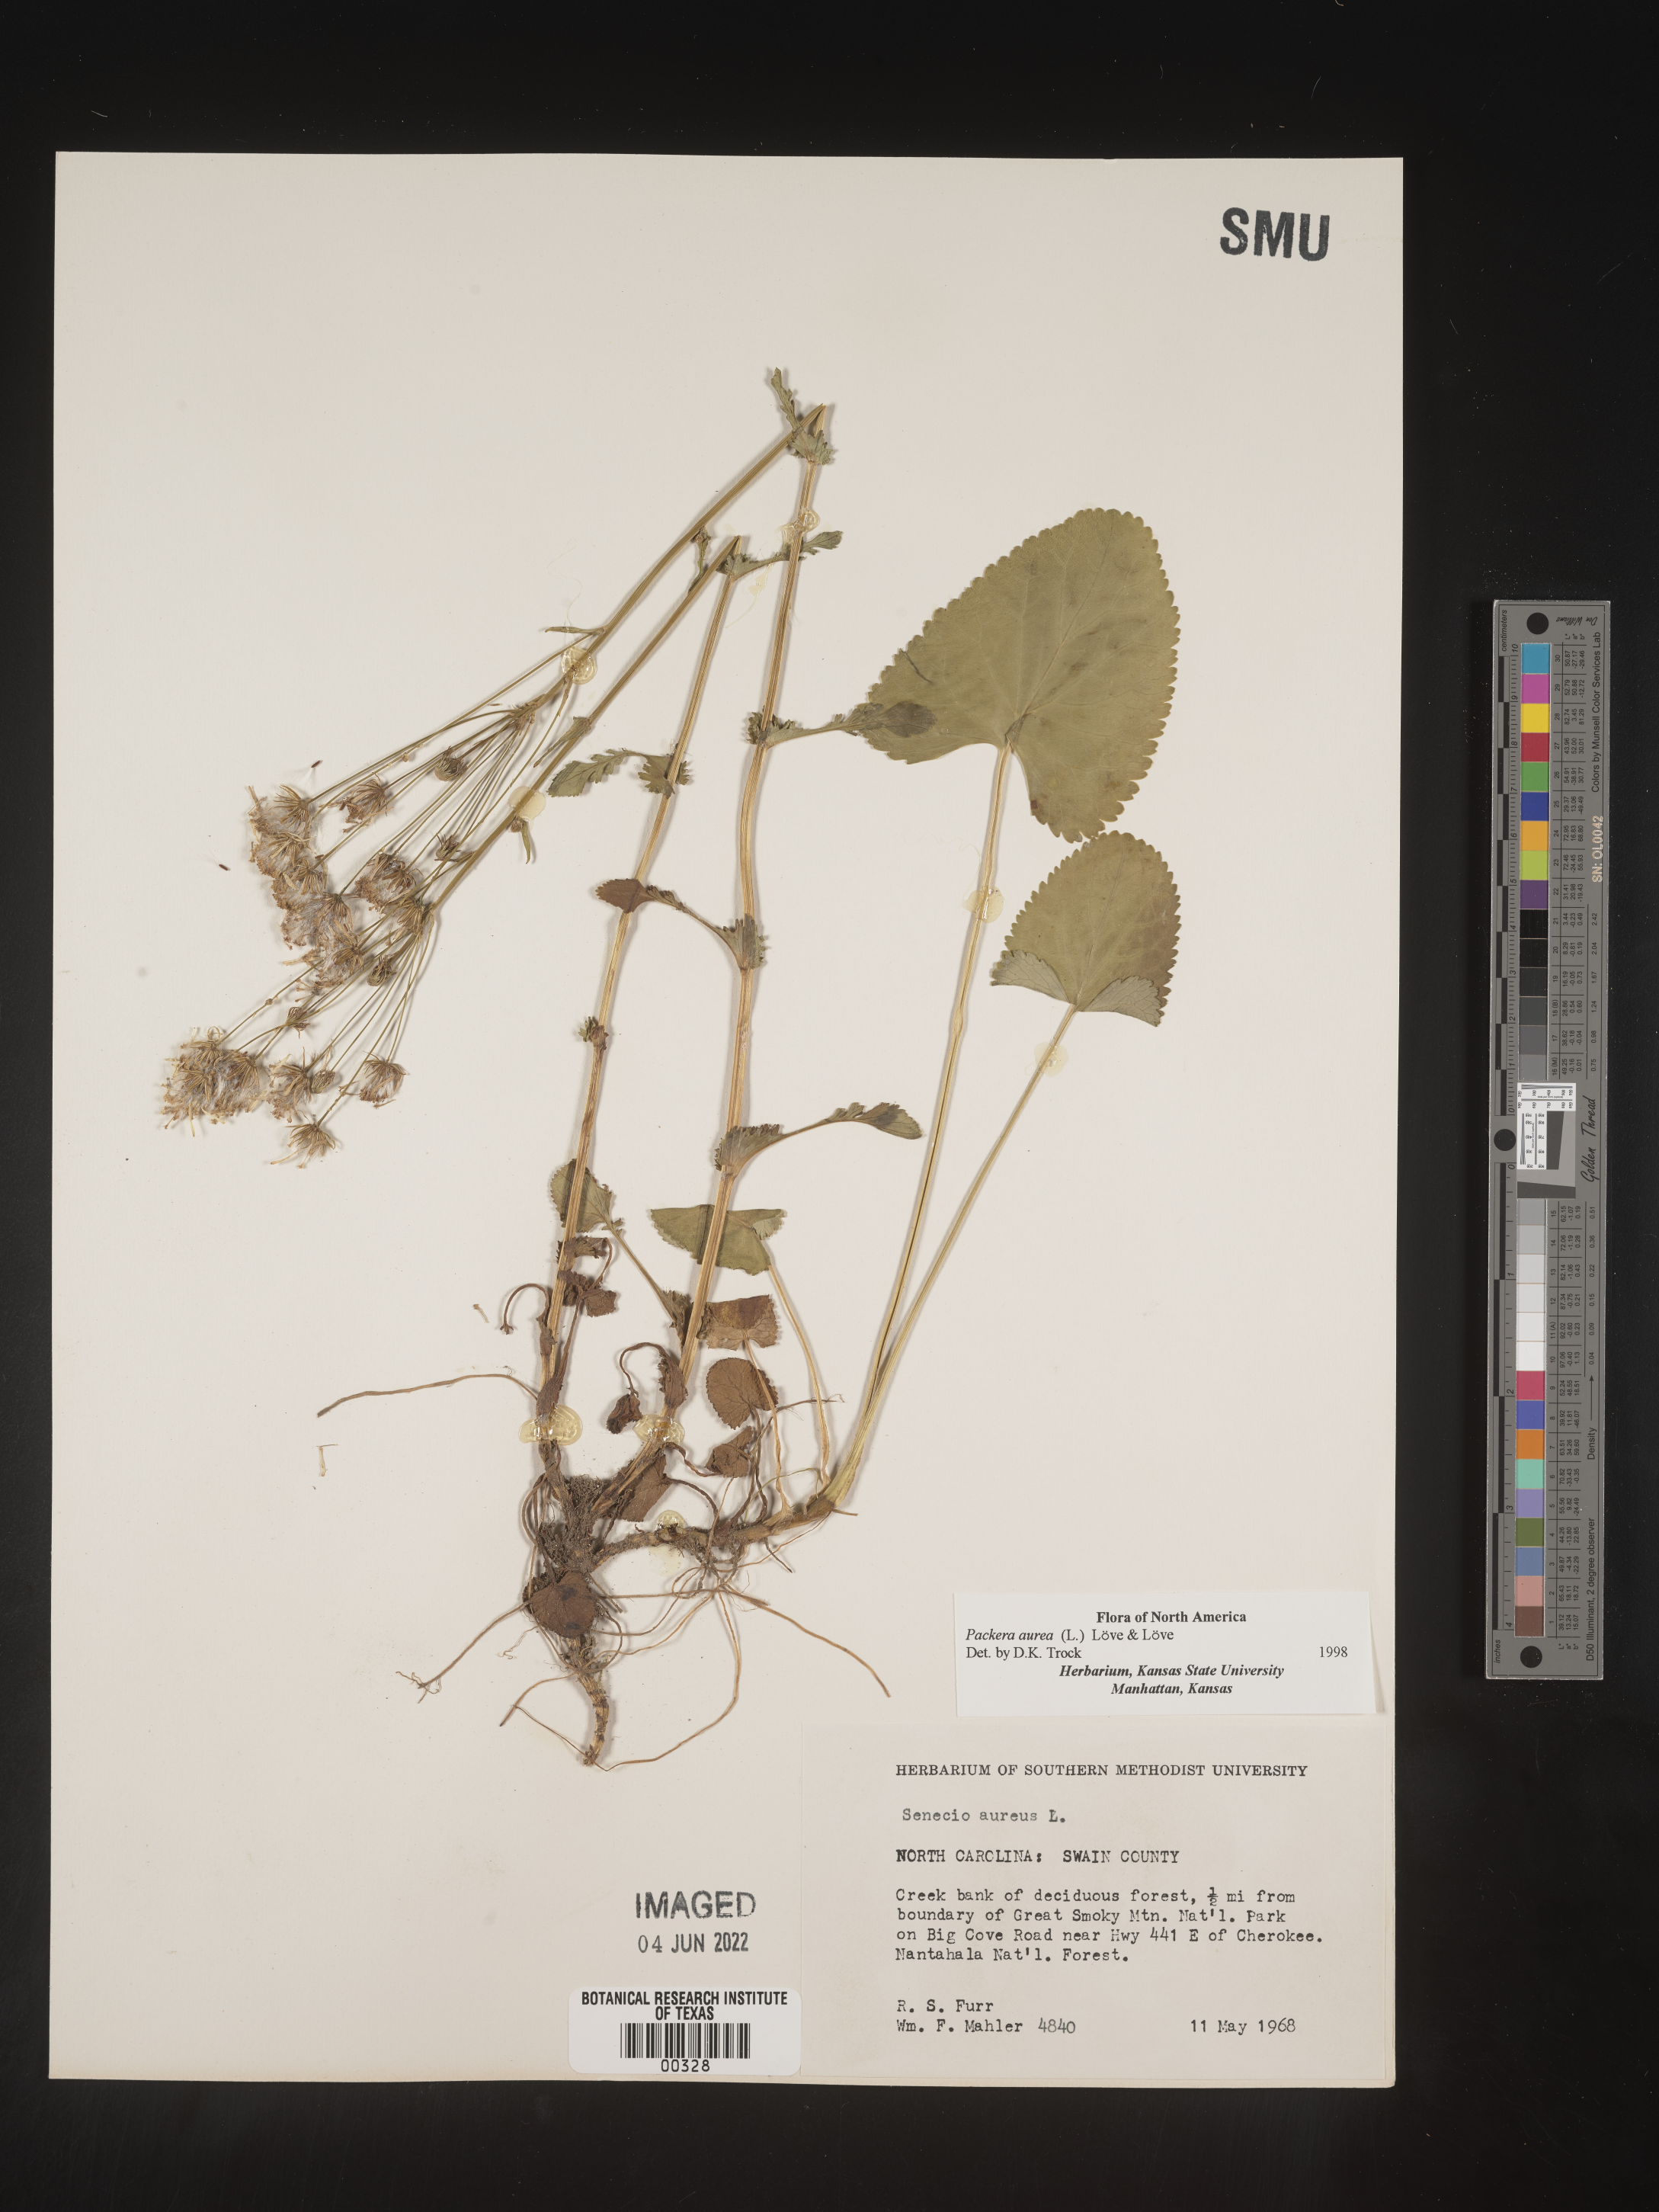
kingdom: Plantae
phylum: Tracheophyta
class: Magnoliopsida
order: Asterales
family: Asteraceae
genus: Packera
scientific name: Packera aurea
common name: Golden groundsel
